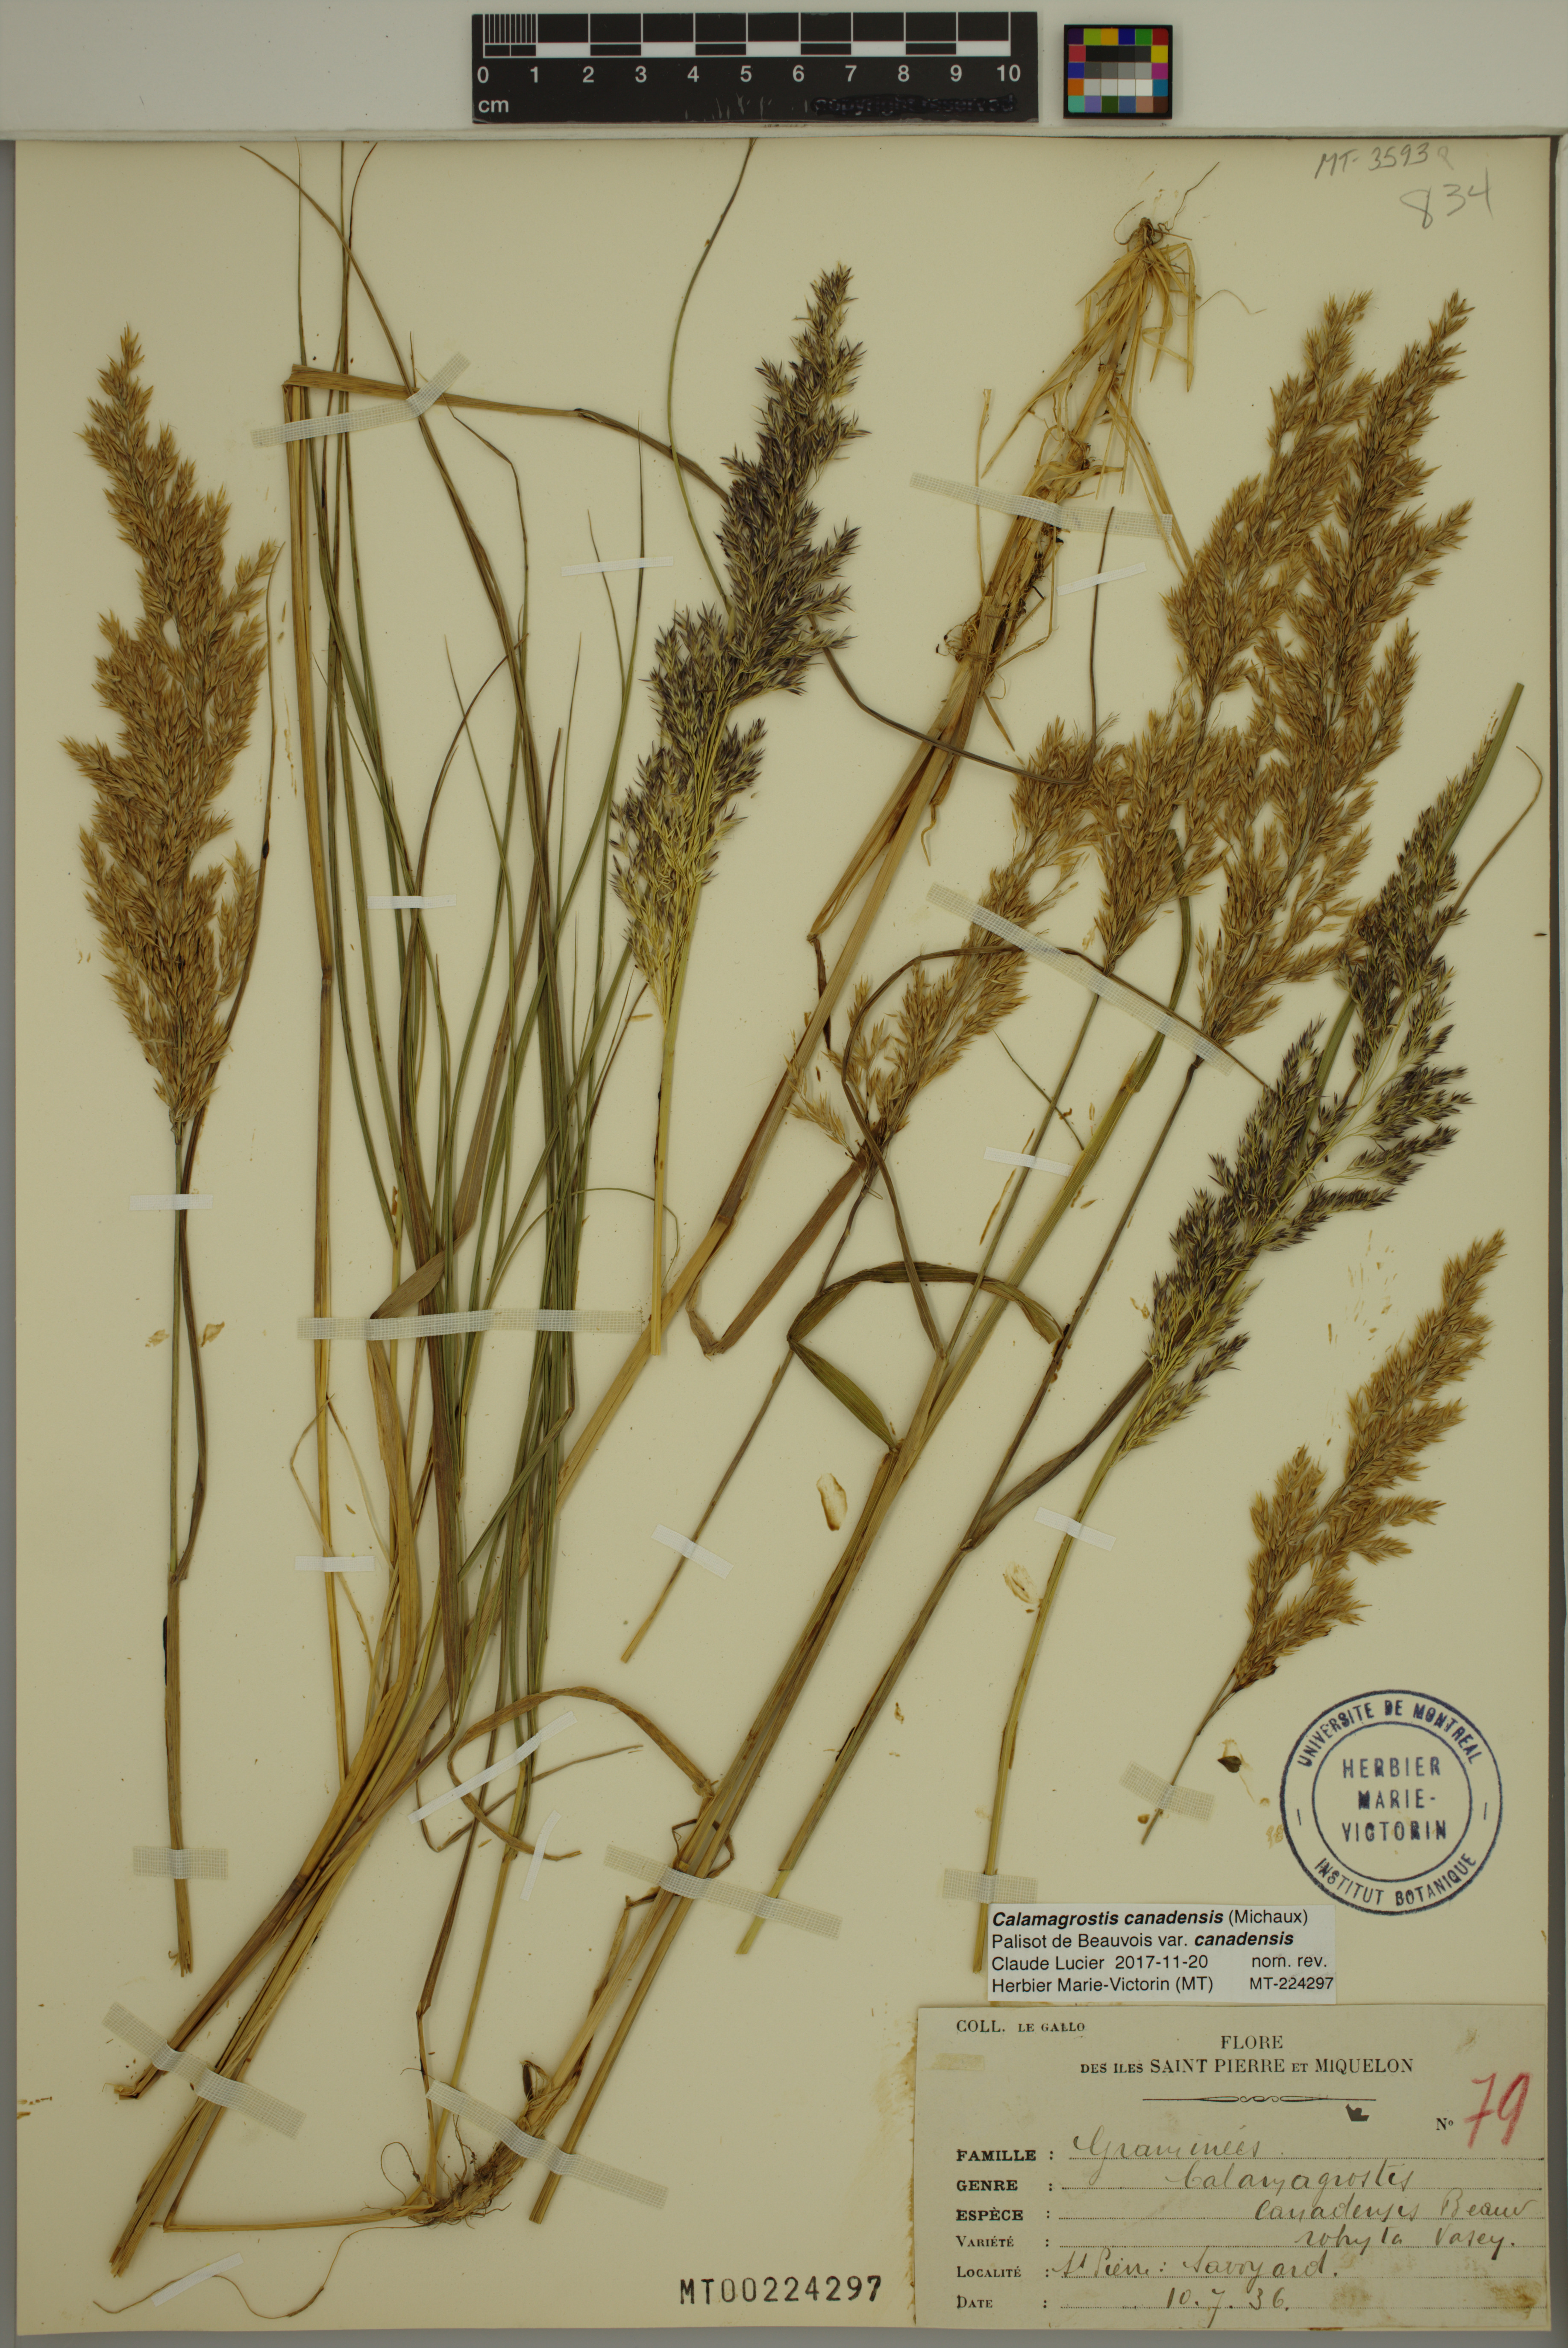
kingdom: Plantae
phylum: Tracheophyta
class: Liliopsida
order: Poales
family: Poaceae
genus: Calamagrostis
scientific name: Calamagrostis canadensis
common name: Canada bluejoint
